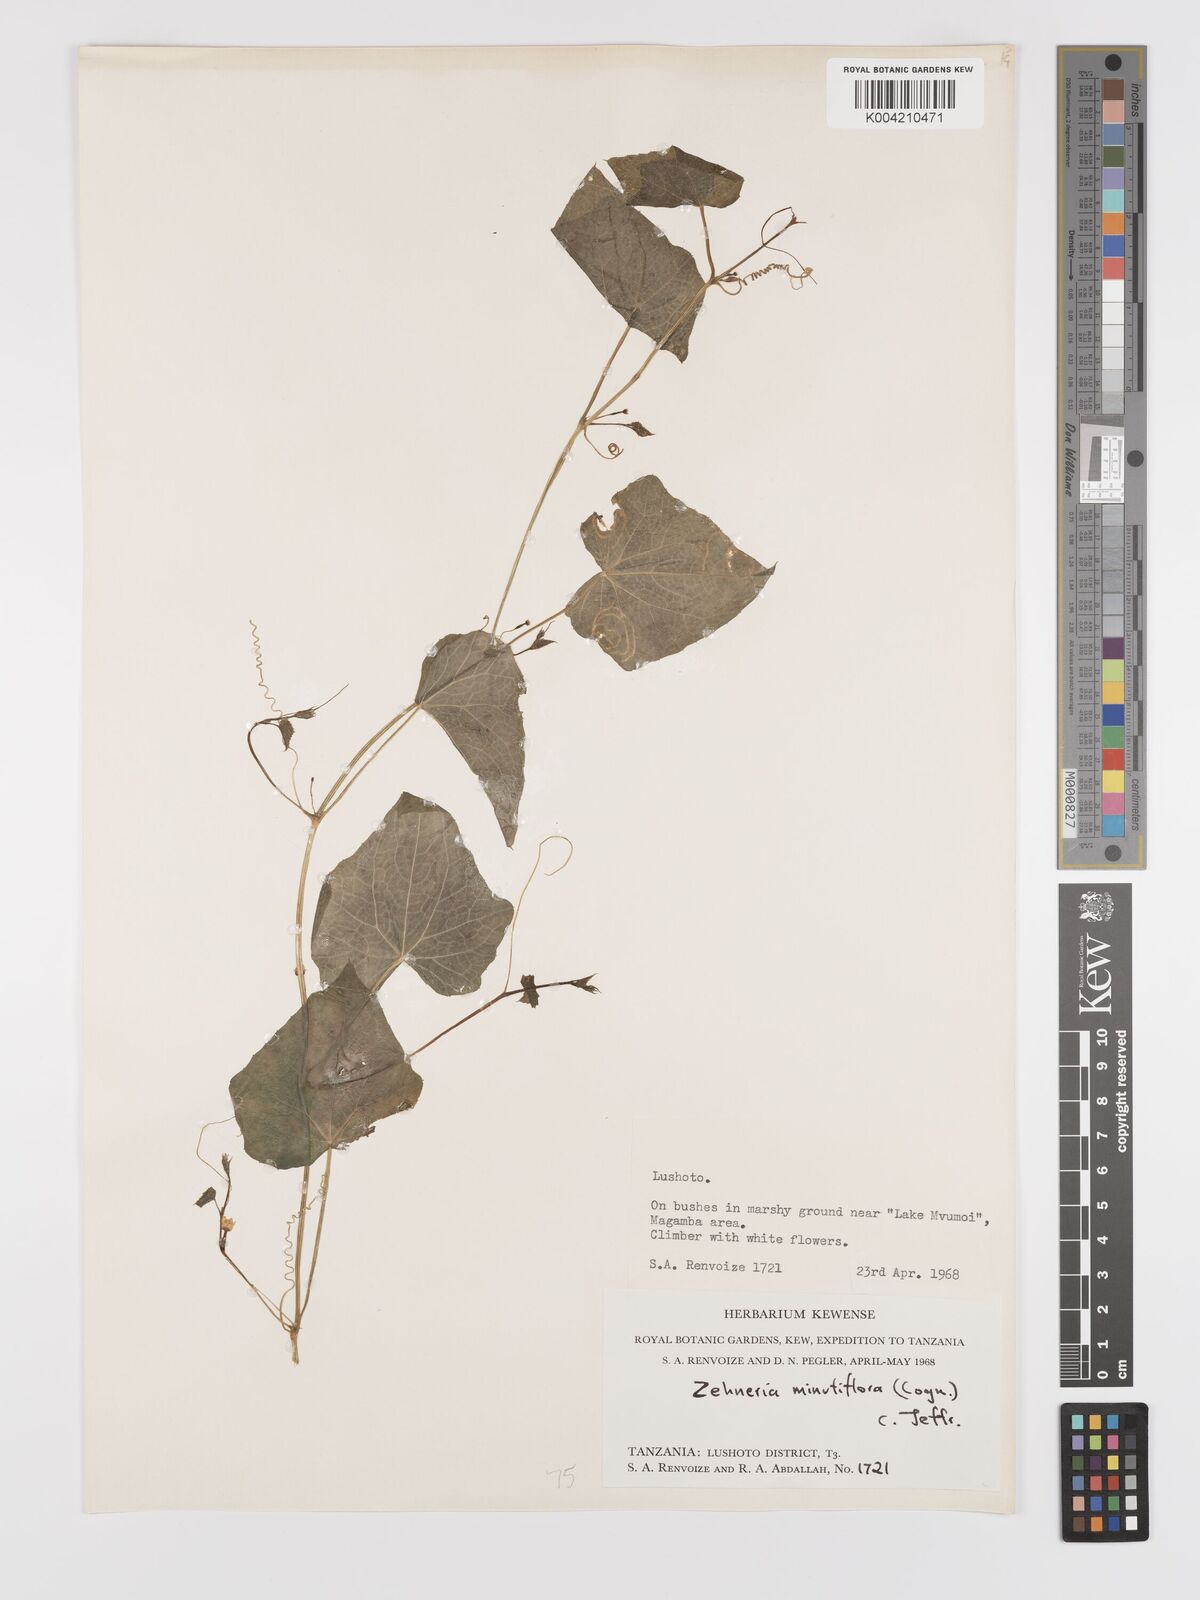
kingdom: Plantae
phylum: Tracheophyta
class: Magnoliopsida
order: Cucurbitales
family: Cucurbitaceae
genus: Zehneria
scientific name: Zehneria minutiflora
